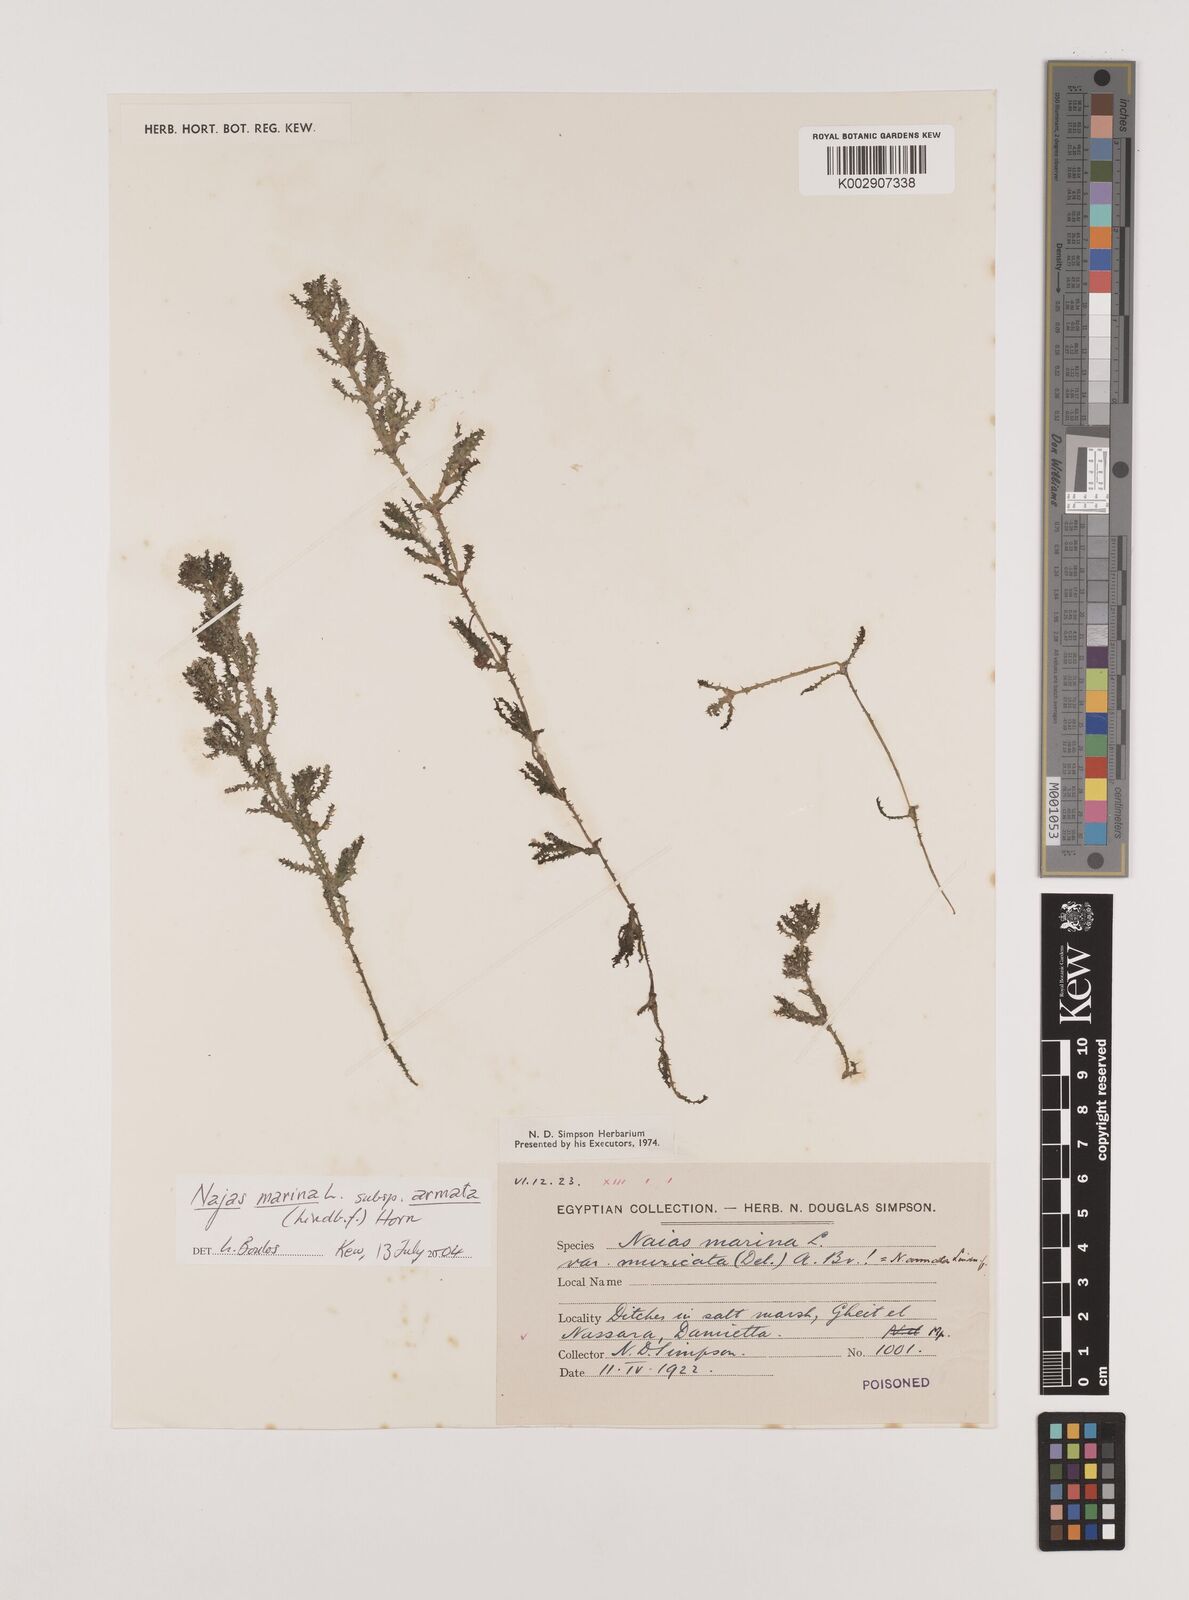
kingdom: Plantae
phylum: Tracheophyta
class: Liliopsida
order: Alismatales
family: Hydrocharitaceae
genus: Najas
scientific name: Najas marina
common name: Holly-leaved naiad
